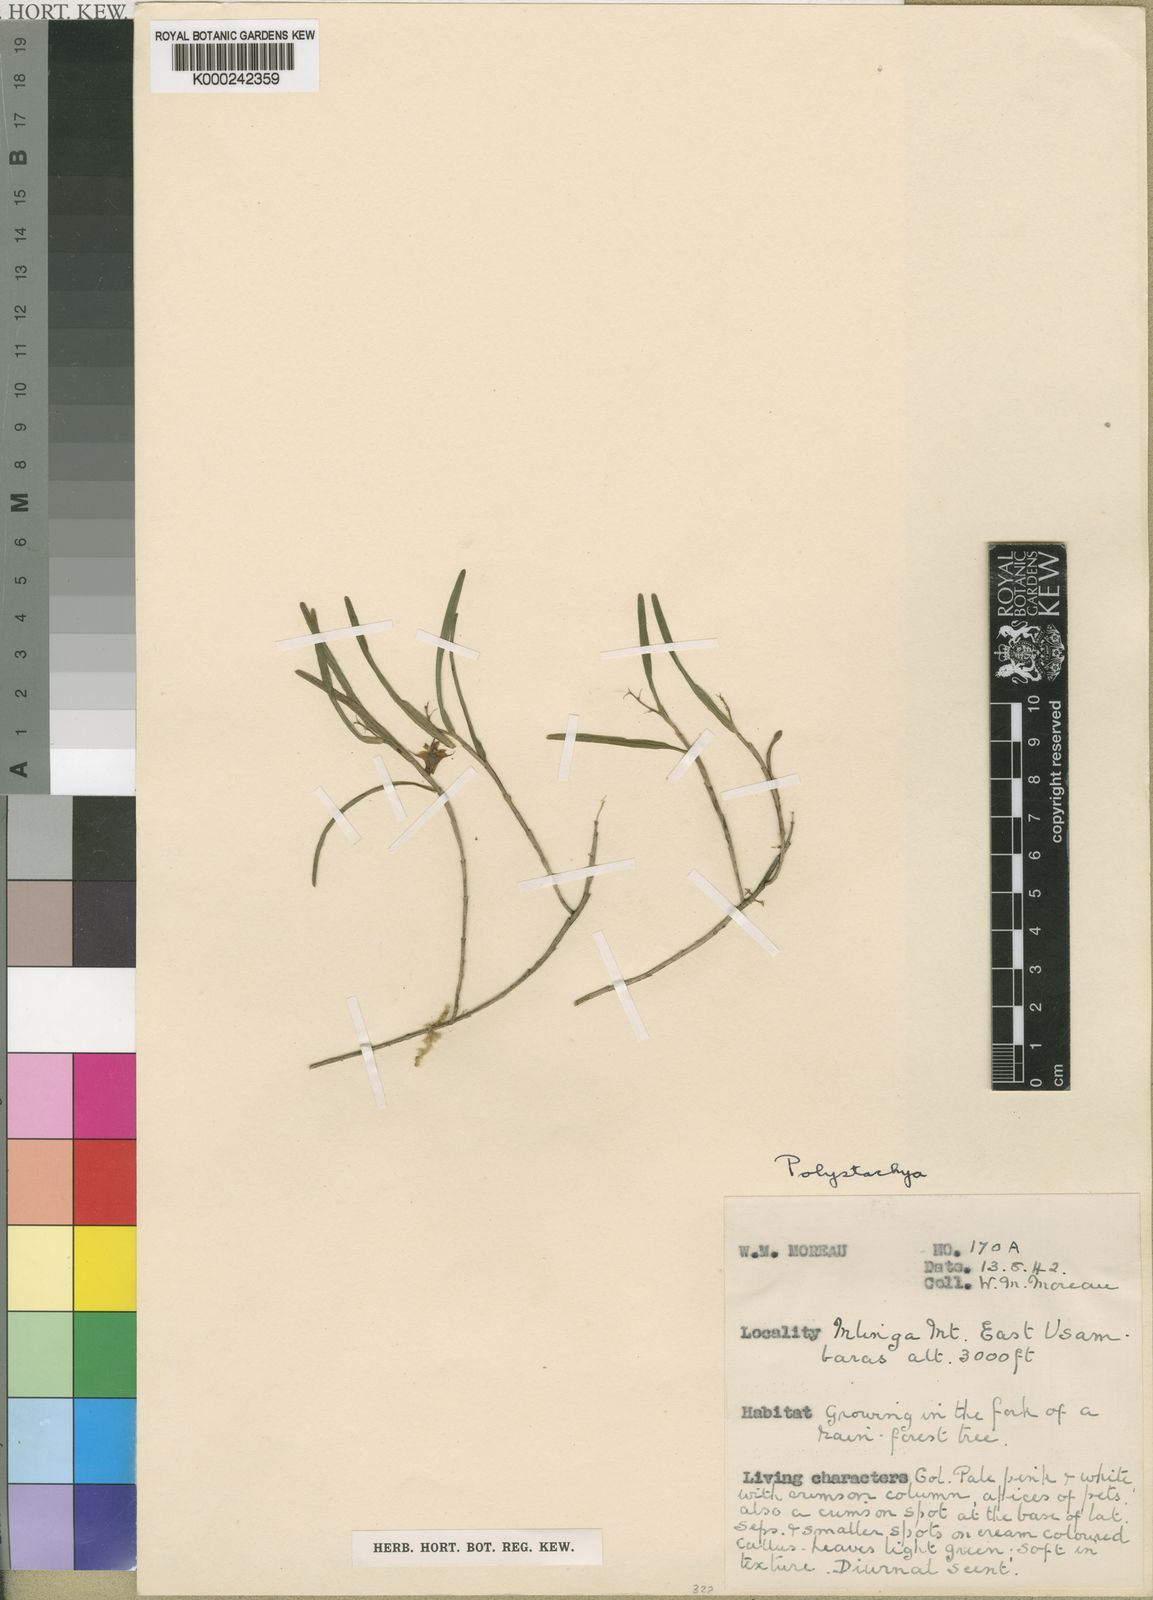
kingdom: Plantae
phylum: Tracheophyta
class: Liliopsida
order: Asparagales
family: Orchidaceae
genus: Polystachya
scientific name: Polystachya pudorina
